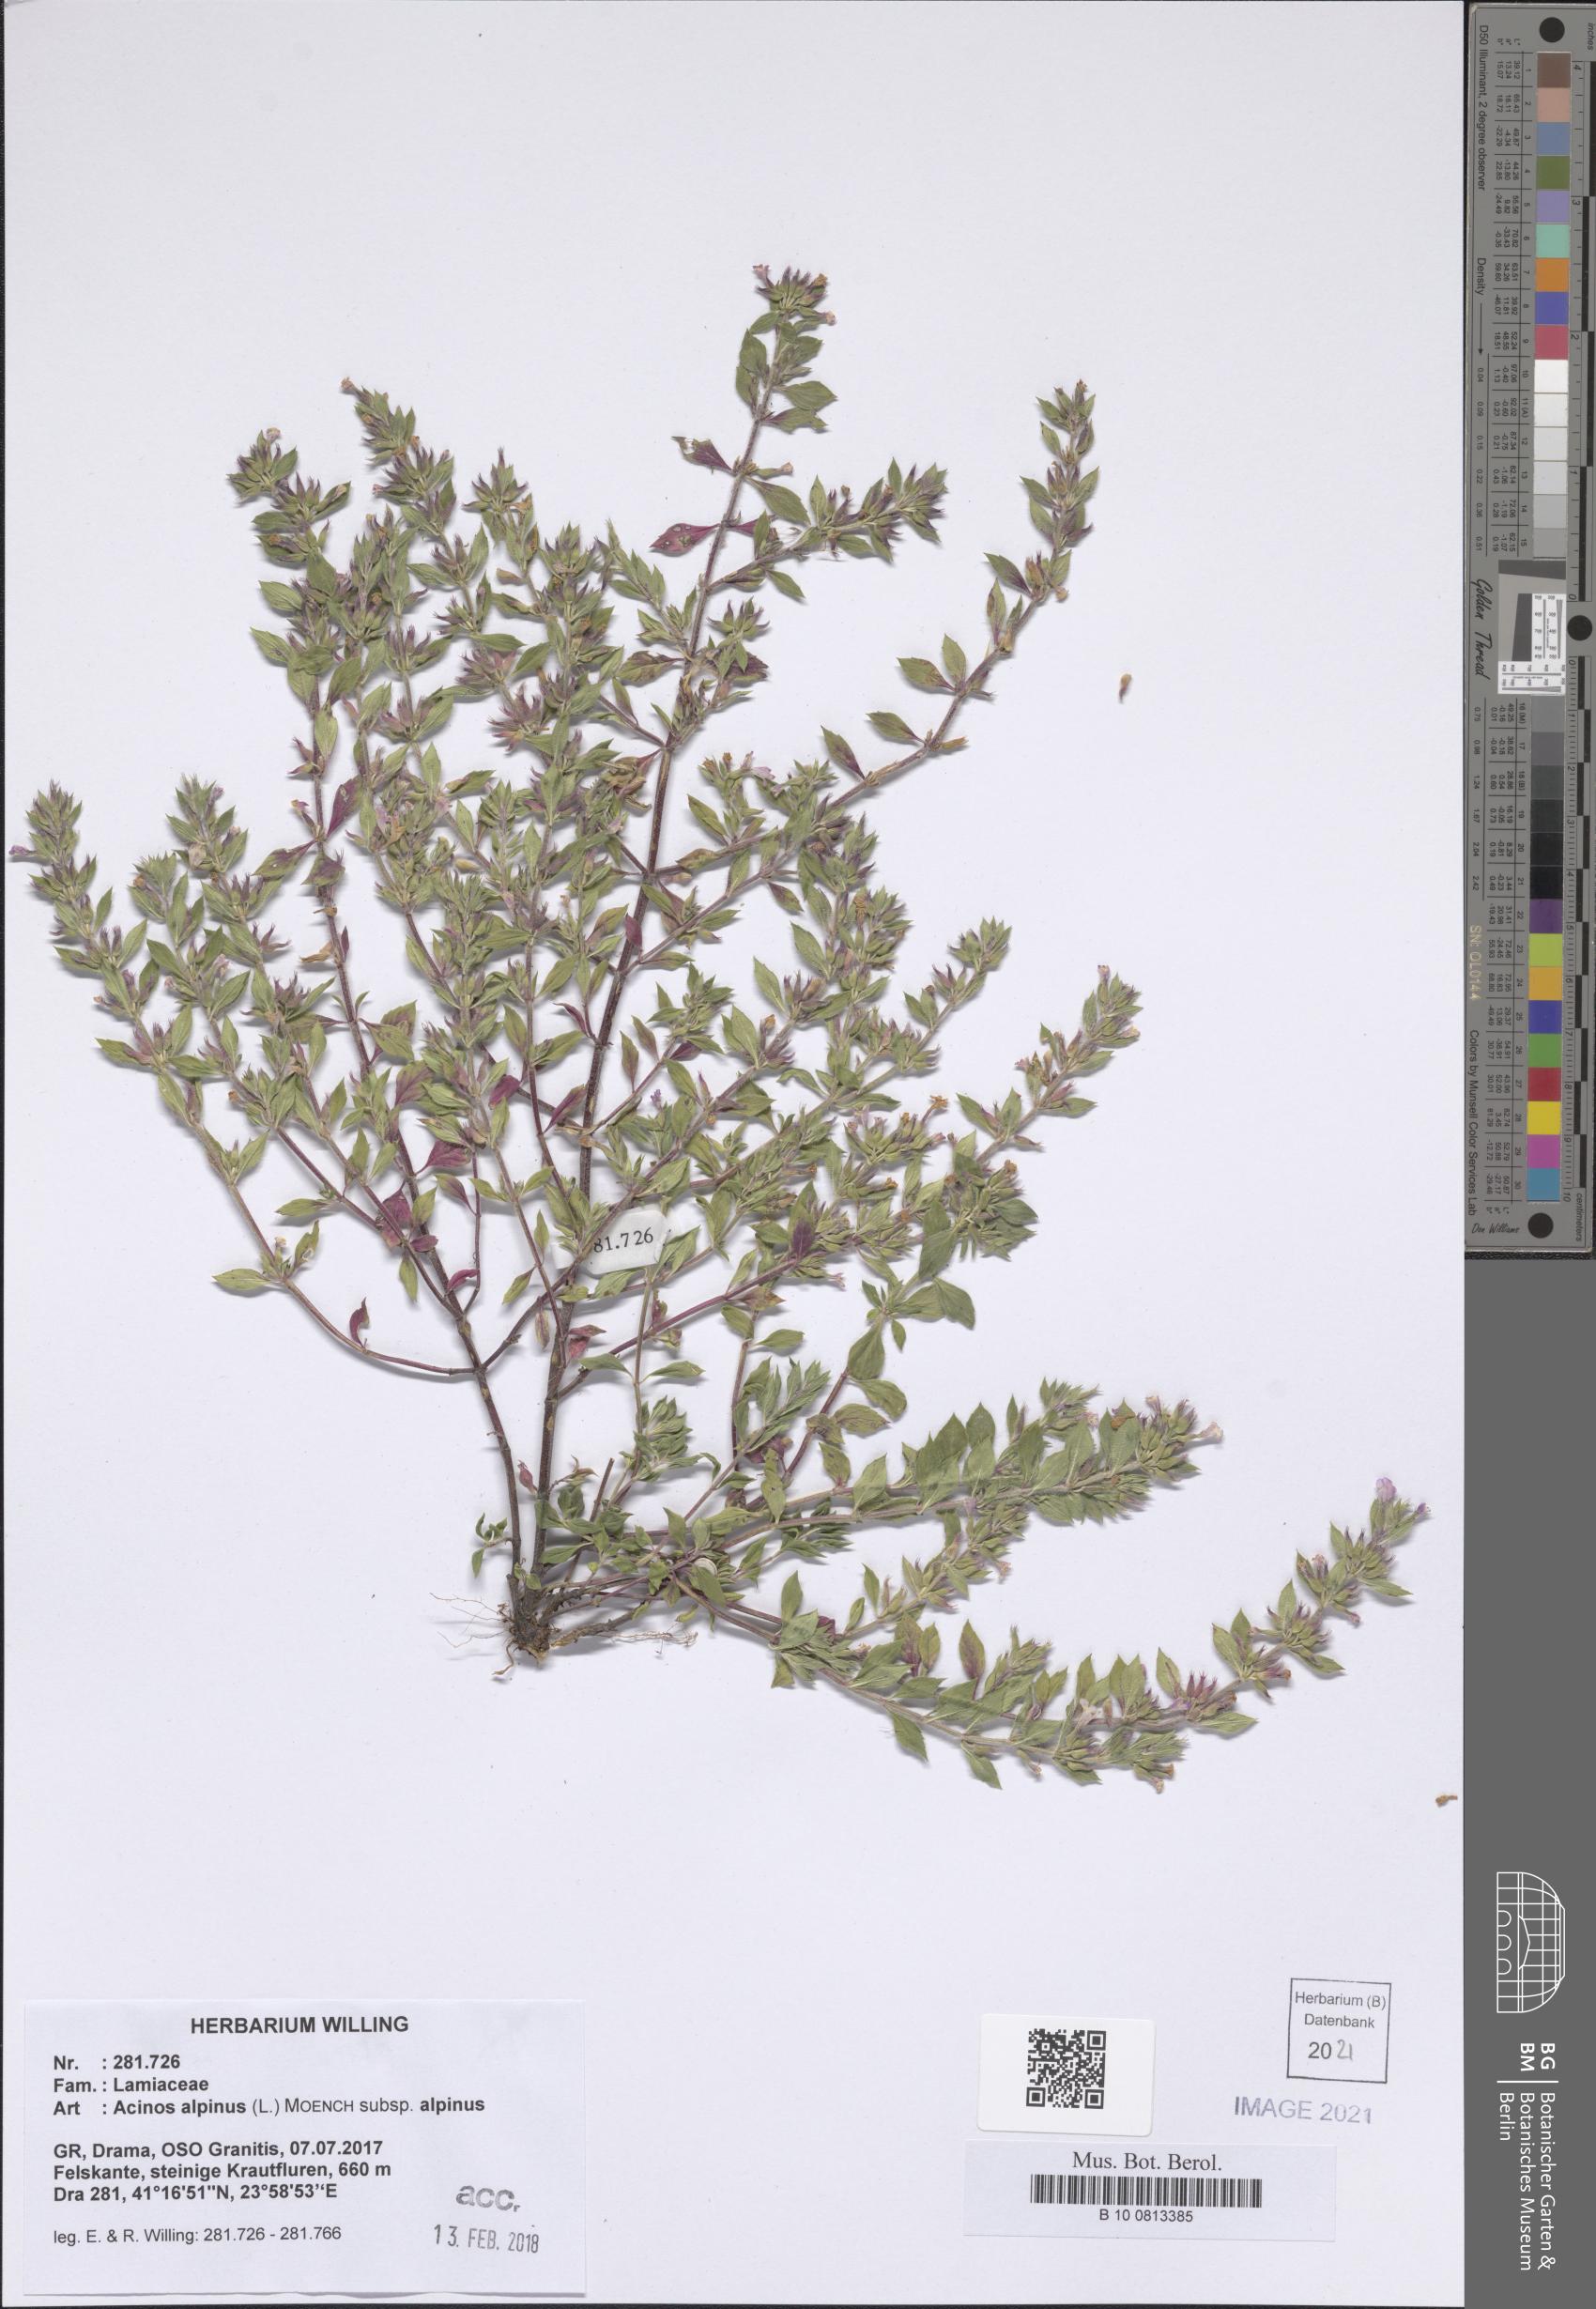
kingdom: Plantae
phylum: Tracheophyta
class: Magnoliopsida
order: Lamiales
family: Lamiaceae
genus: Clinopodium
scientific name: Clinopodium alpinum
